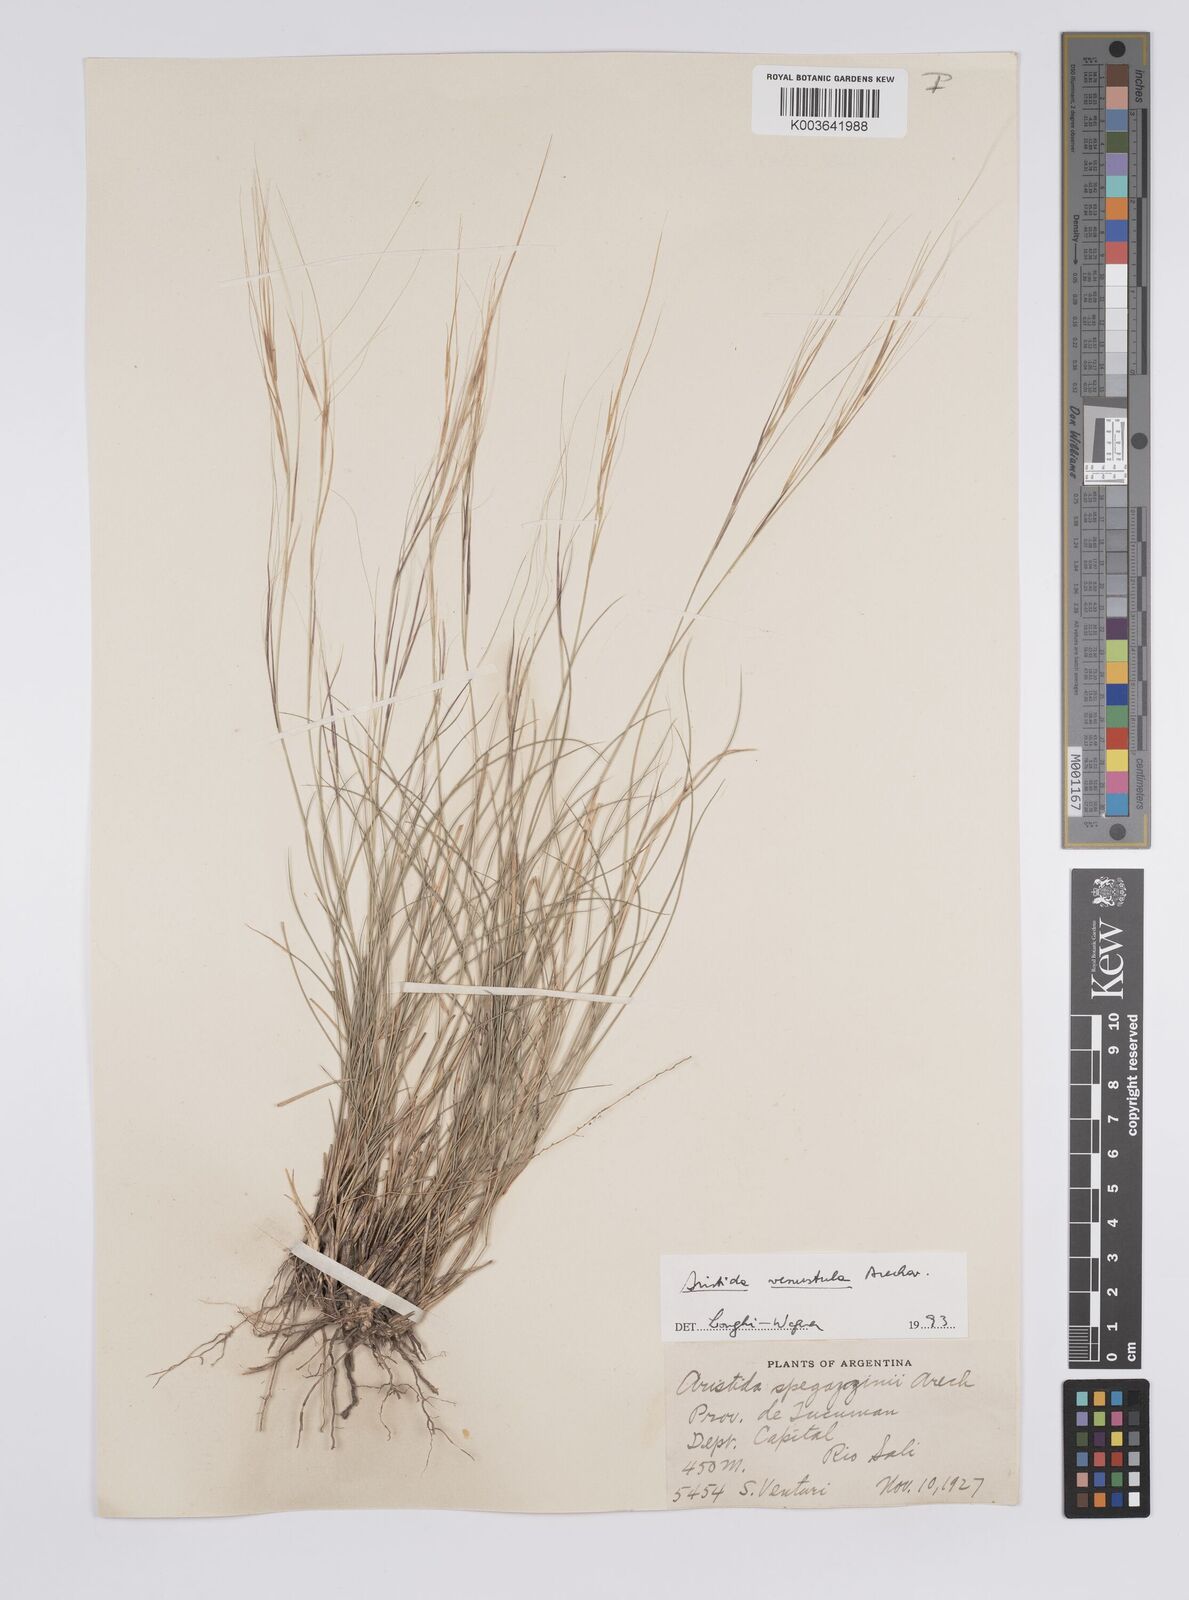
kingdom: Plantae
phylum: Tracheophyta
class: Liliopsida
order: Poales
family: Poaceae
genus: Aristida
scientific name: Aristida venustula
